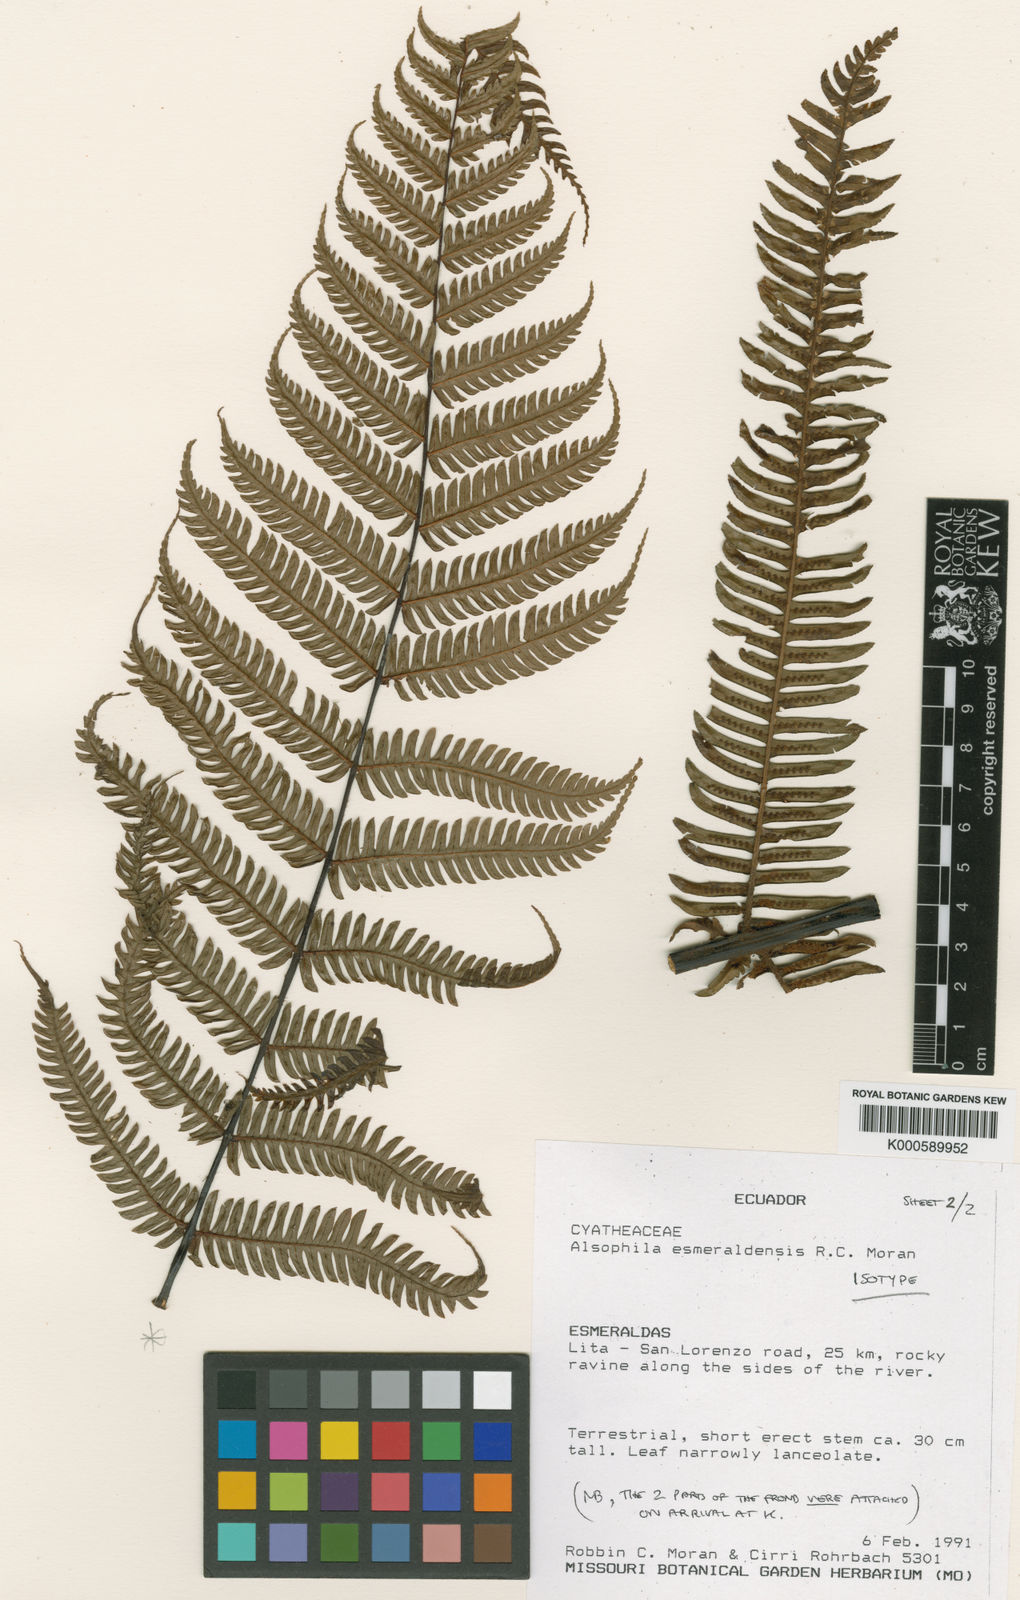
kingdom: Plantae
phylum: Tracheophyta
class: Polypodiopsida
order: Cyatheales
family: Cyatheaceae
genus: Alsophila
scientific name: Alsophila esmeraldensis
